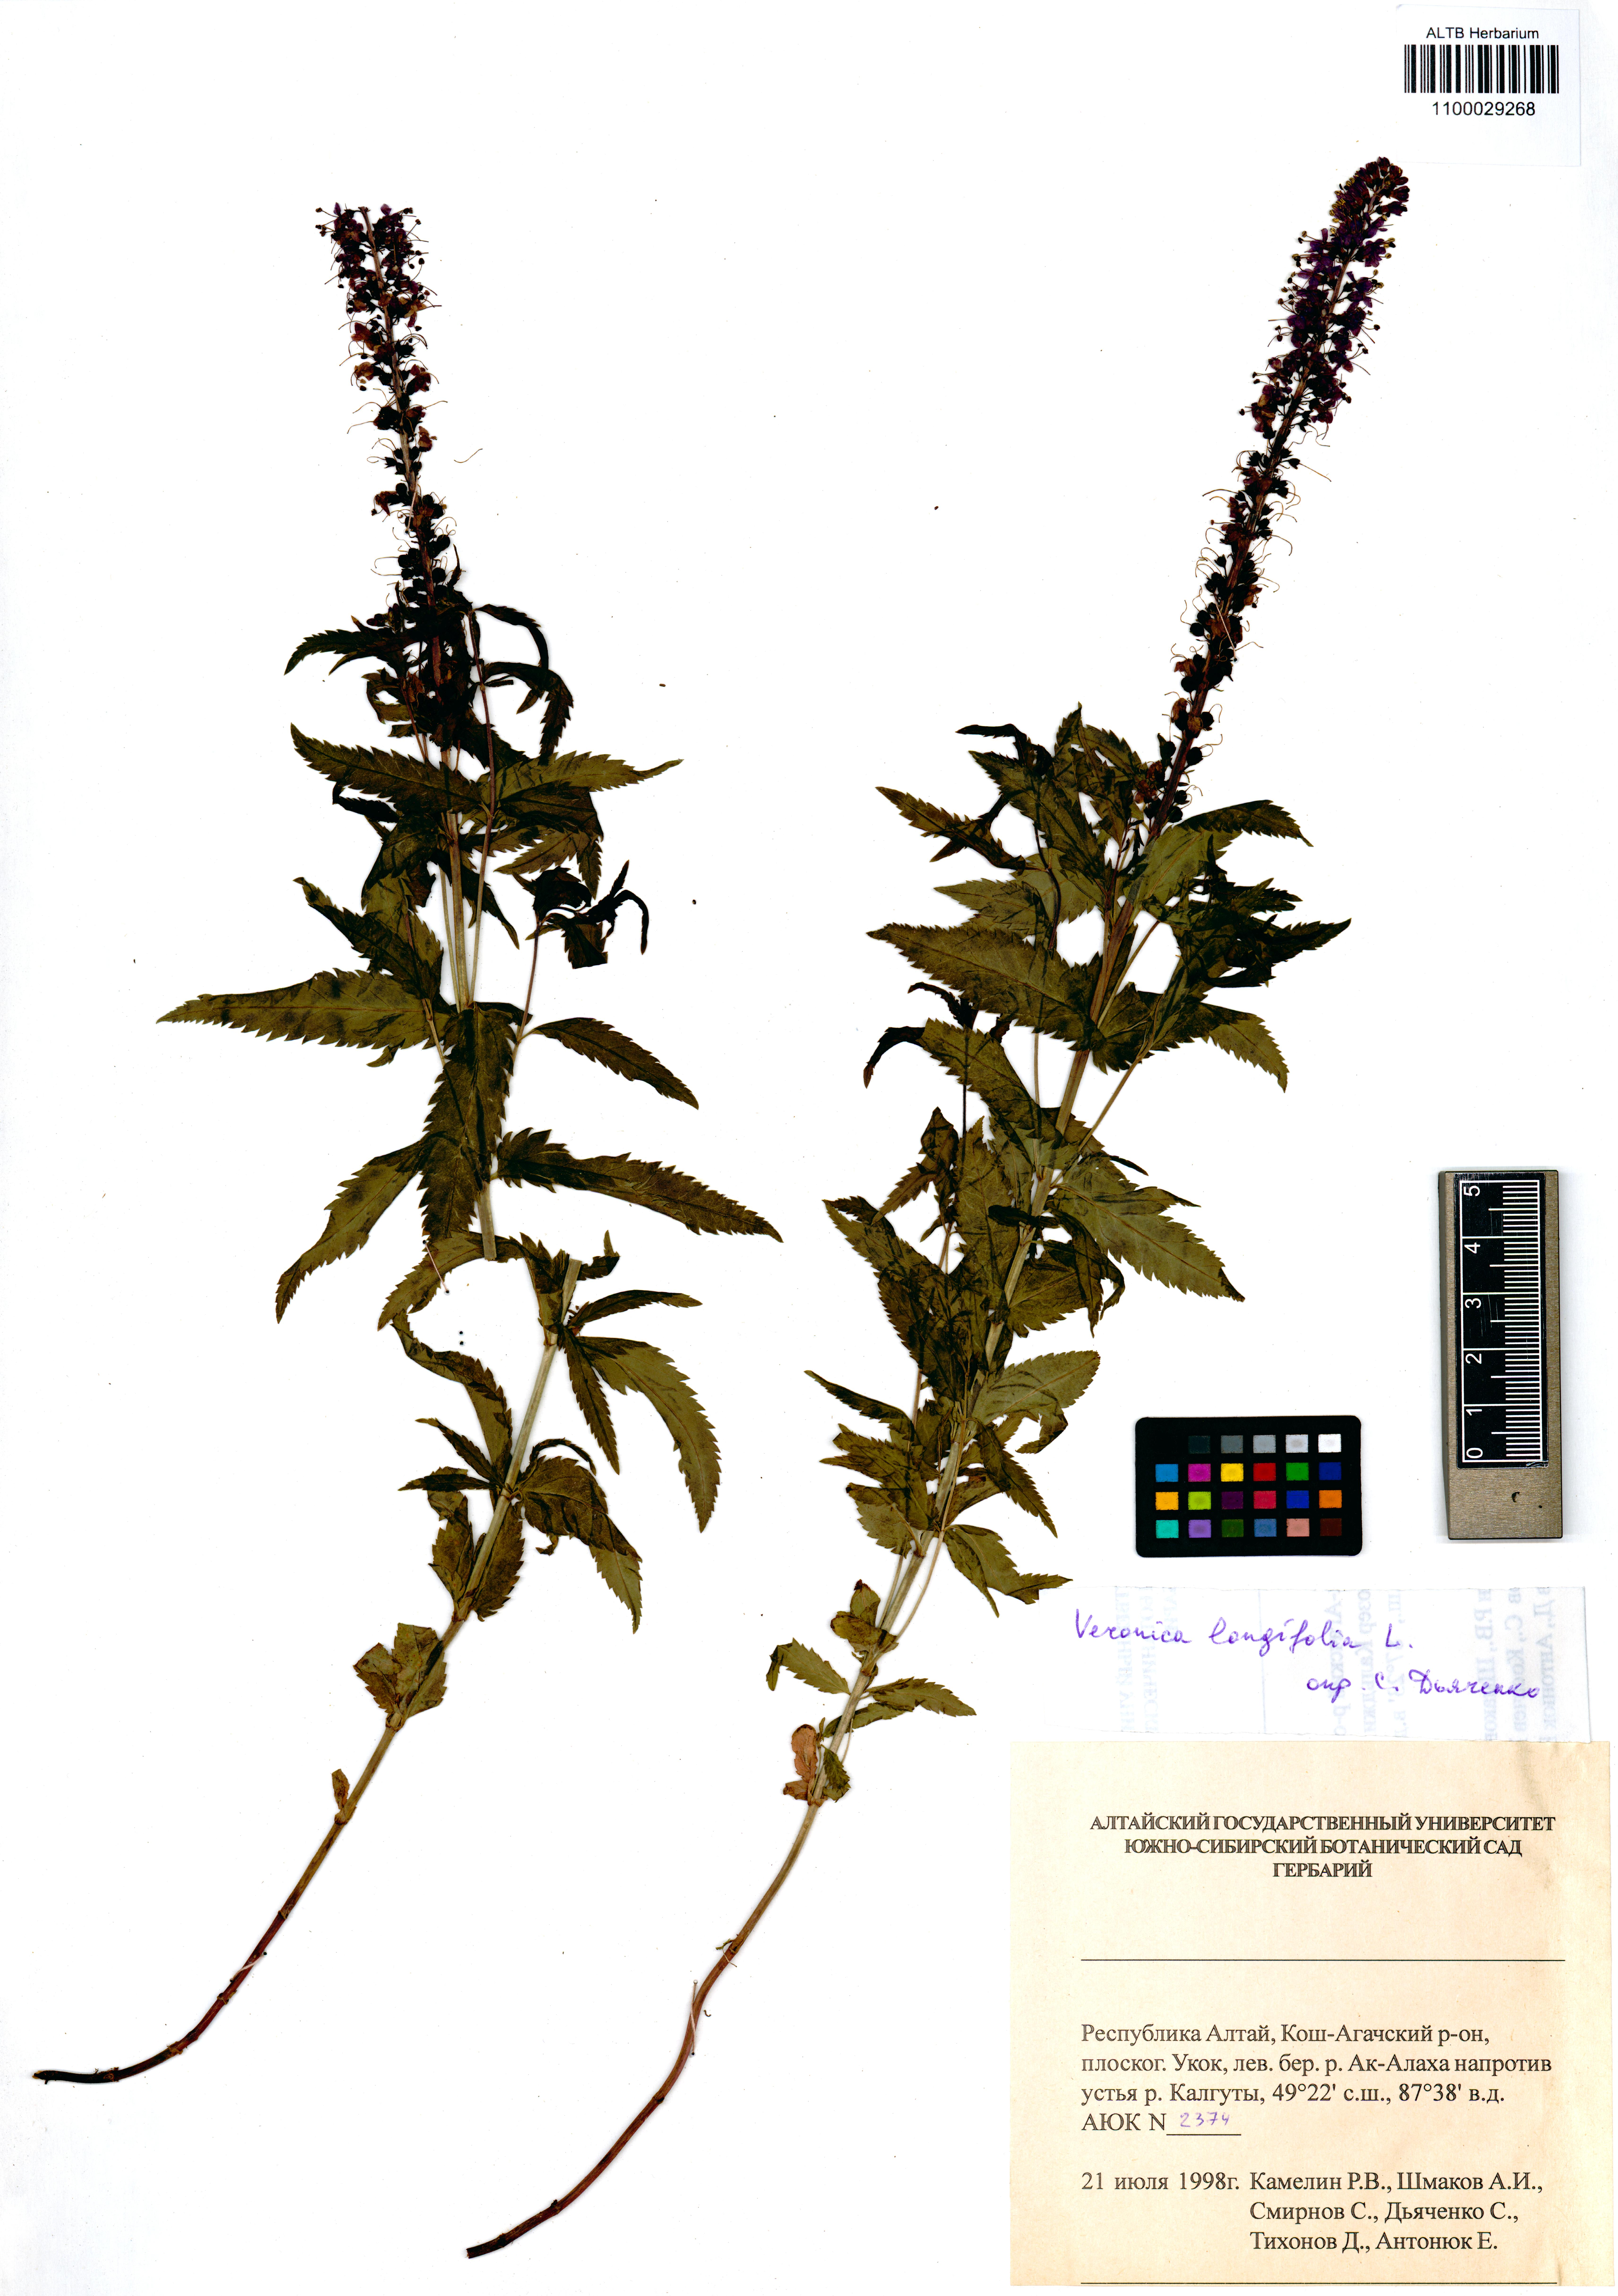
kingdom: Plantae
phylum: Tracheophyta
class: Magnoliopsida
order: Lamiales
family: Plantaginaceae
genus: Veronica
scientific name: Veronica longifolia
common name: Garden speedwell
